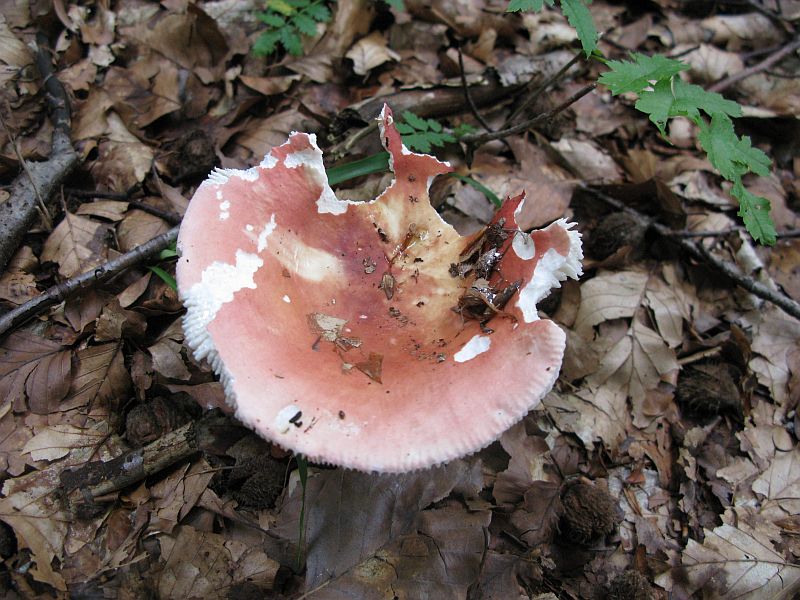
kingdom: Fungi
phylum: Basidiomycota
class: Agaricomycetes
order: Russulales
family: Russulaceae
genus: Russula
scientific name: Russula aurora
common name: rosa skørhat
